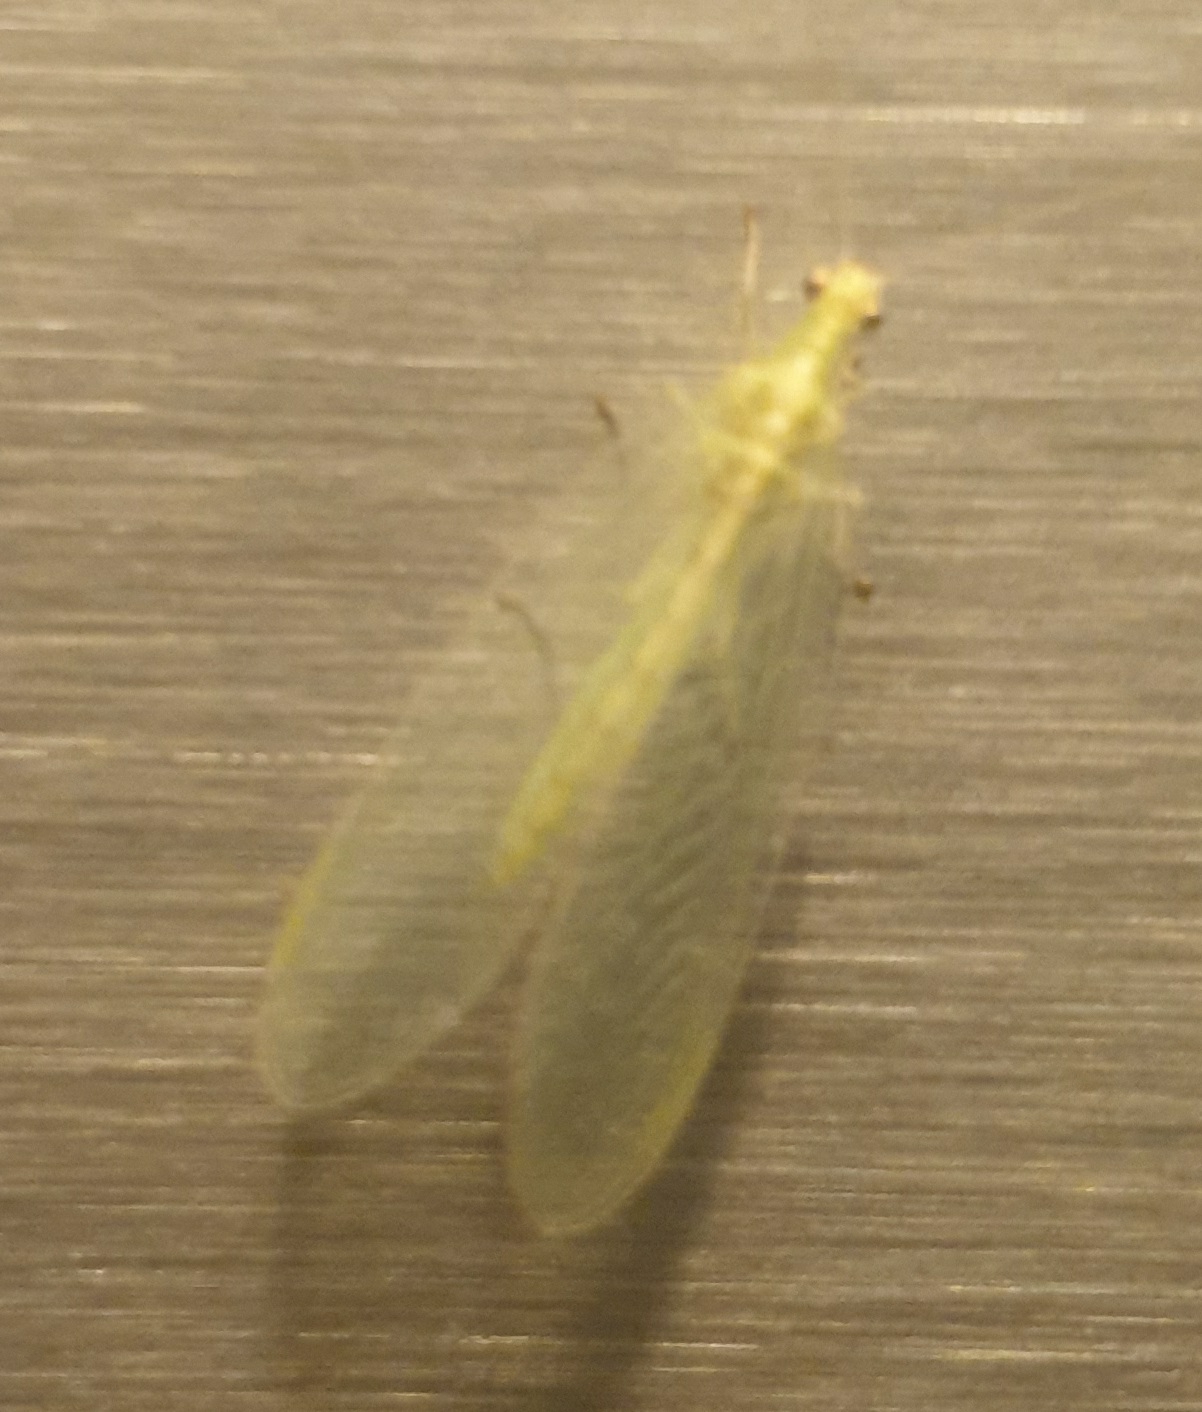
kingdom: Animalia
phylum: Arthropoda
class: Insecta
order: Neuroptera
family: Chrysopidae
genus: Chrysoperla
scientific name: Chrysoperla carnea
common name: Almindelig guldøje
